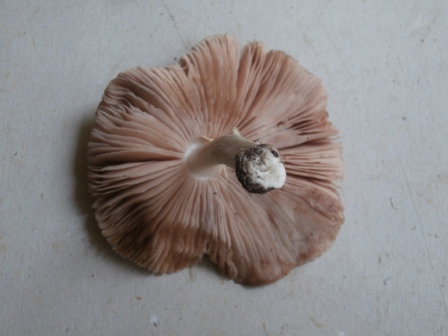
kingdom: Fungi
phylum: Basidiomycota
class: Agaricomycetes
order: Agaricales
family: Pluteaceae
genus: Pluteus
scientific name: Pluteus
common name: gråfibret skærmhat
